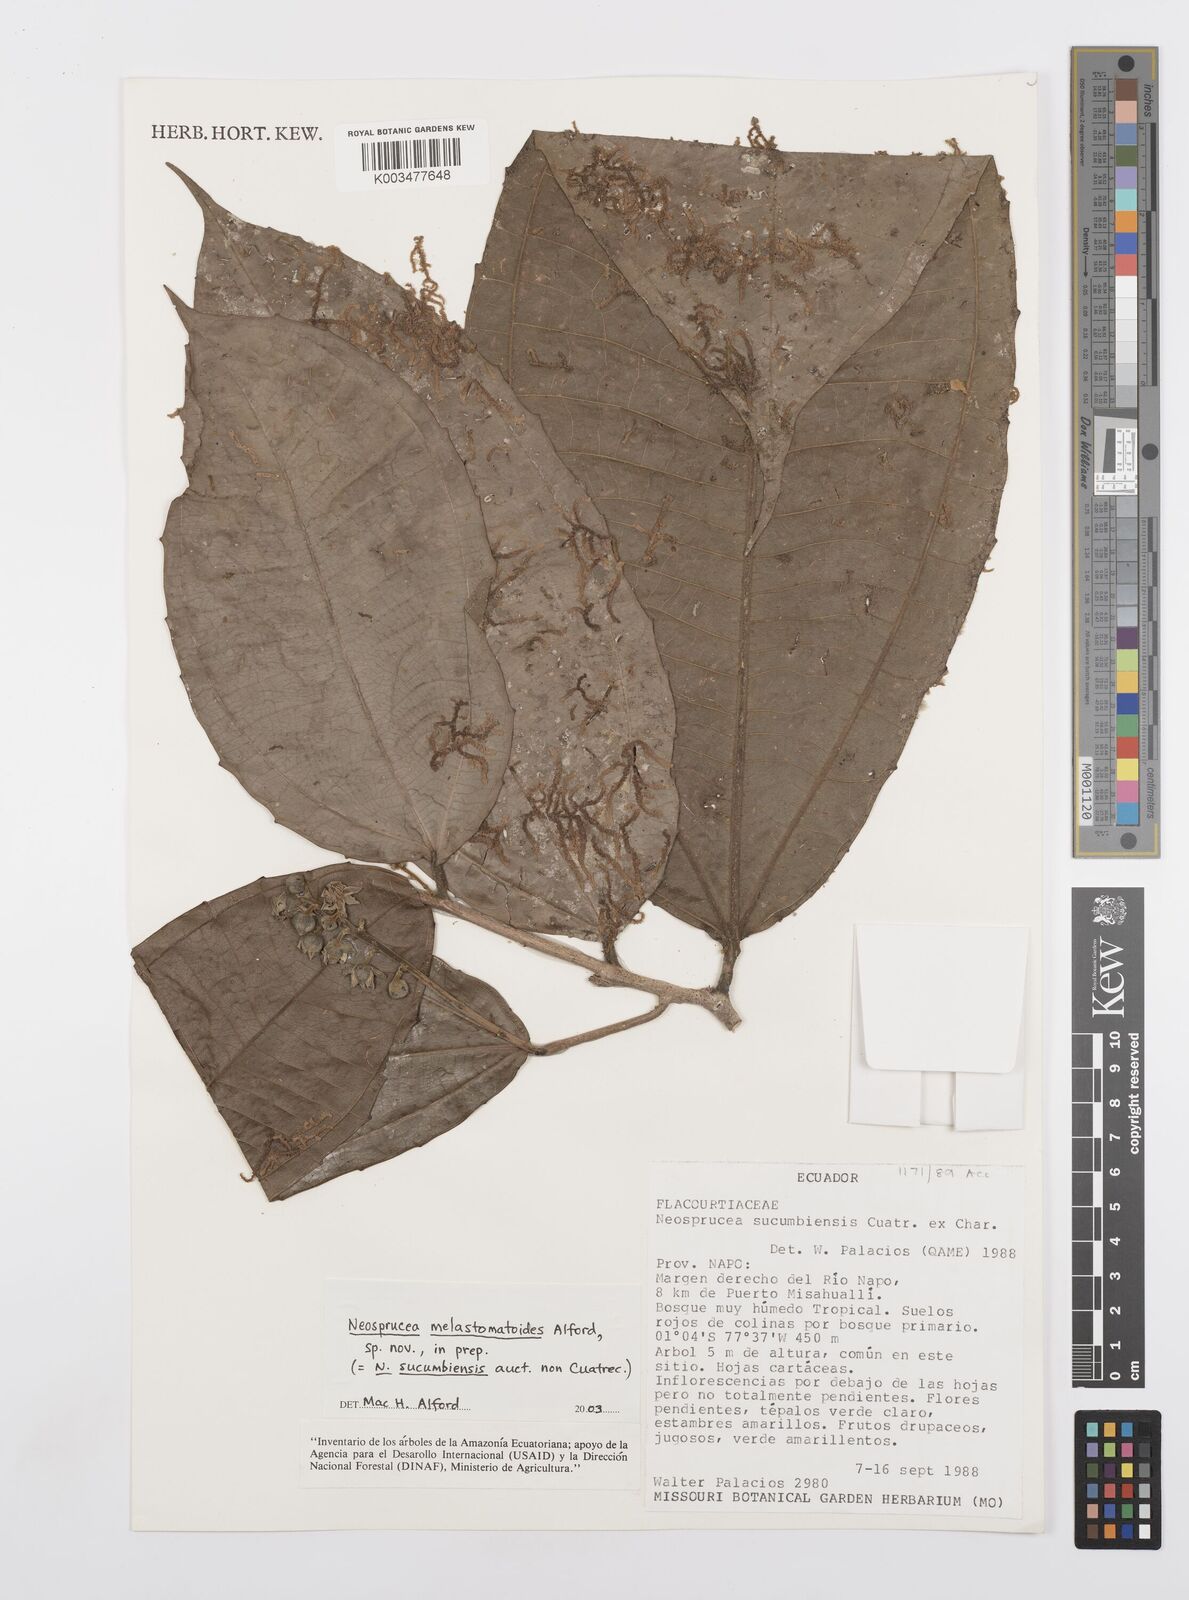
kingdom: Plantae
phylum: Tracheophyta
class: Magnoliopsida
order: Malpighiales
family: Salicaceae
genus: Neosprucea
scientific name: Neosprucea melastomatoides
